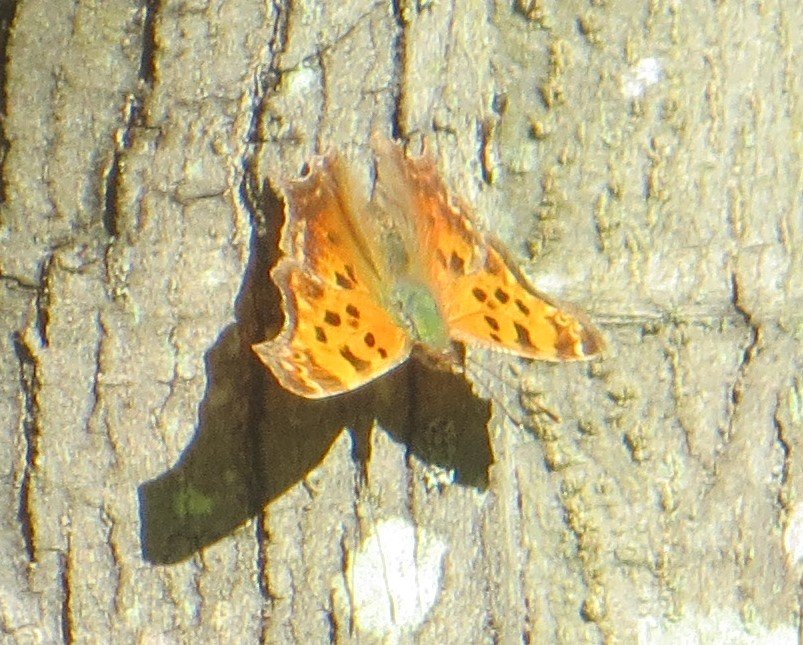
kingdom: Animalia
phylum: Arthropoda
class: Insecta
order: Lepidoptera
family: Nymphalidae
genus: Polygonia
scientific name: Polygonia comma
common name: Eastern Comma
